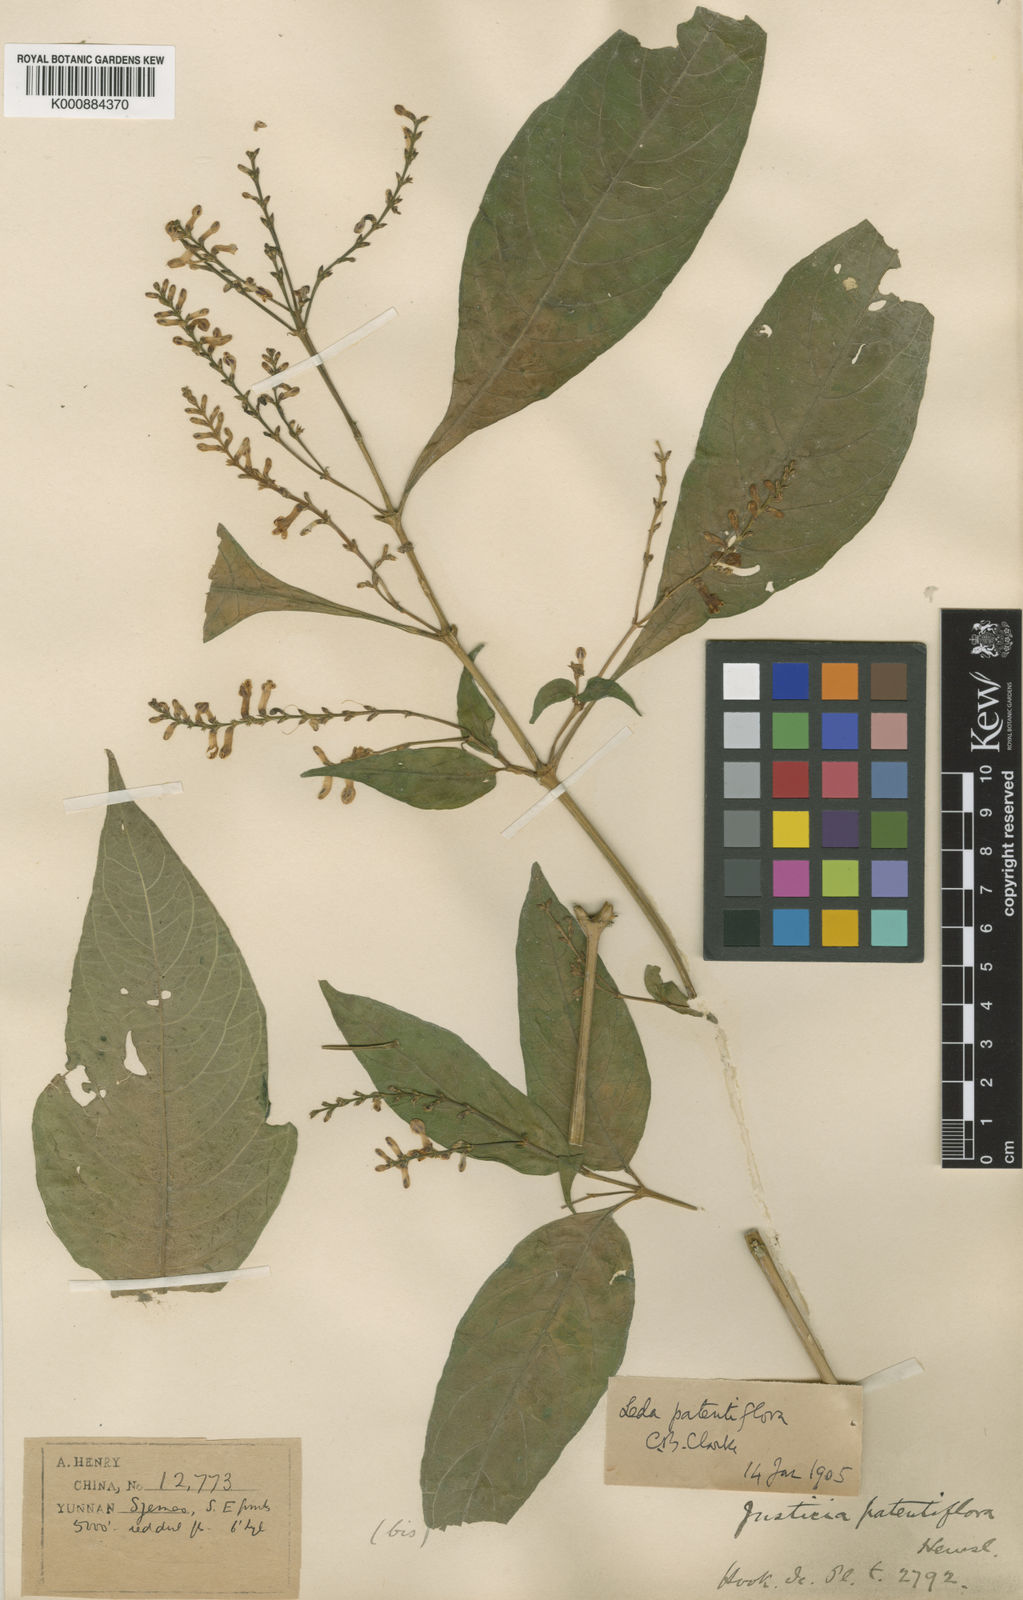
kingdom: Plantae
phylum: Tracheophyta
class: Magnoliopsida
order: Lamiales
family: Acanthaceae
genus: Isoglossa
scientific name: Isoglossa
